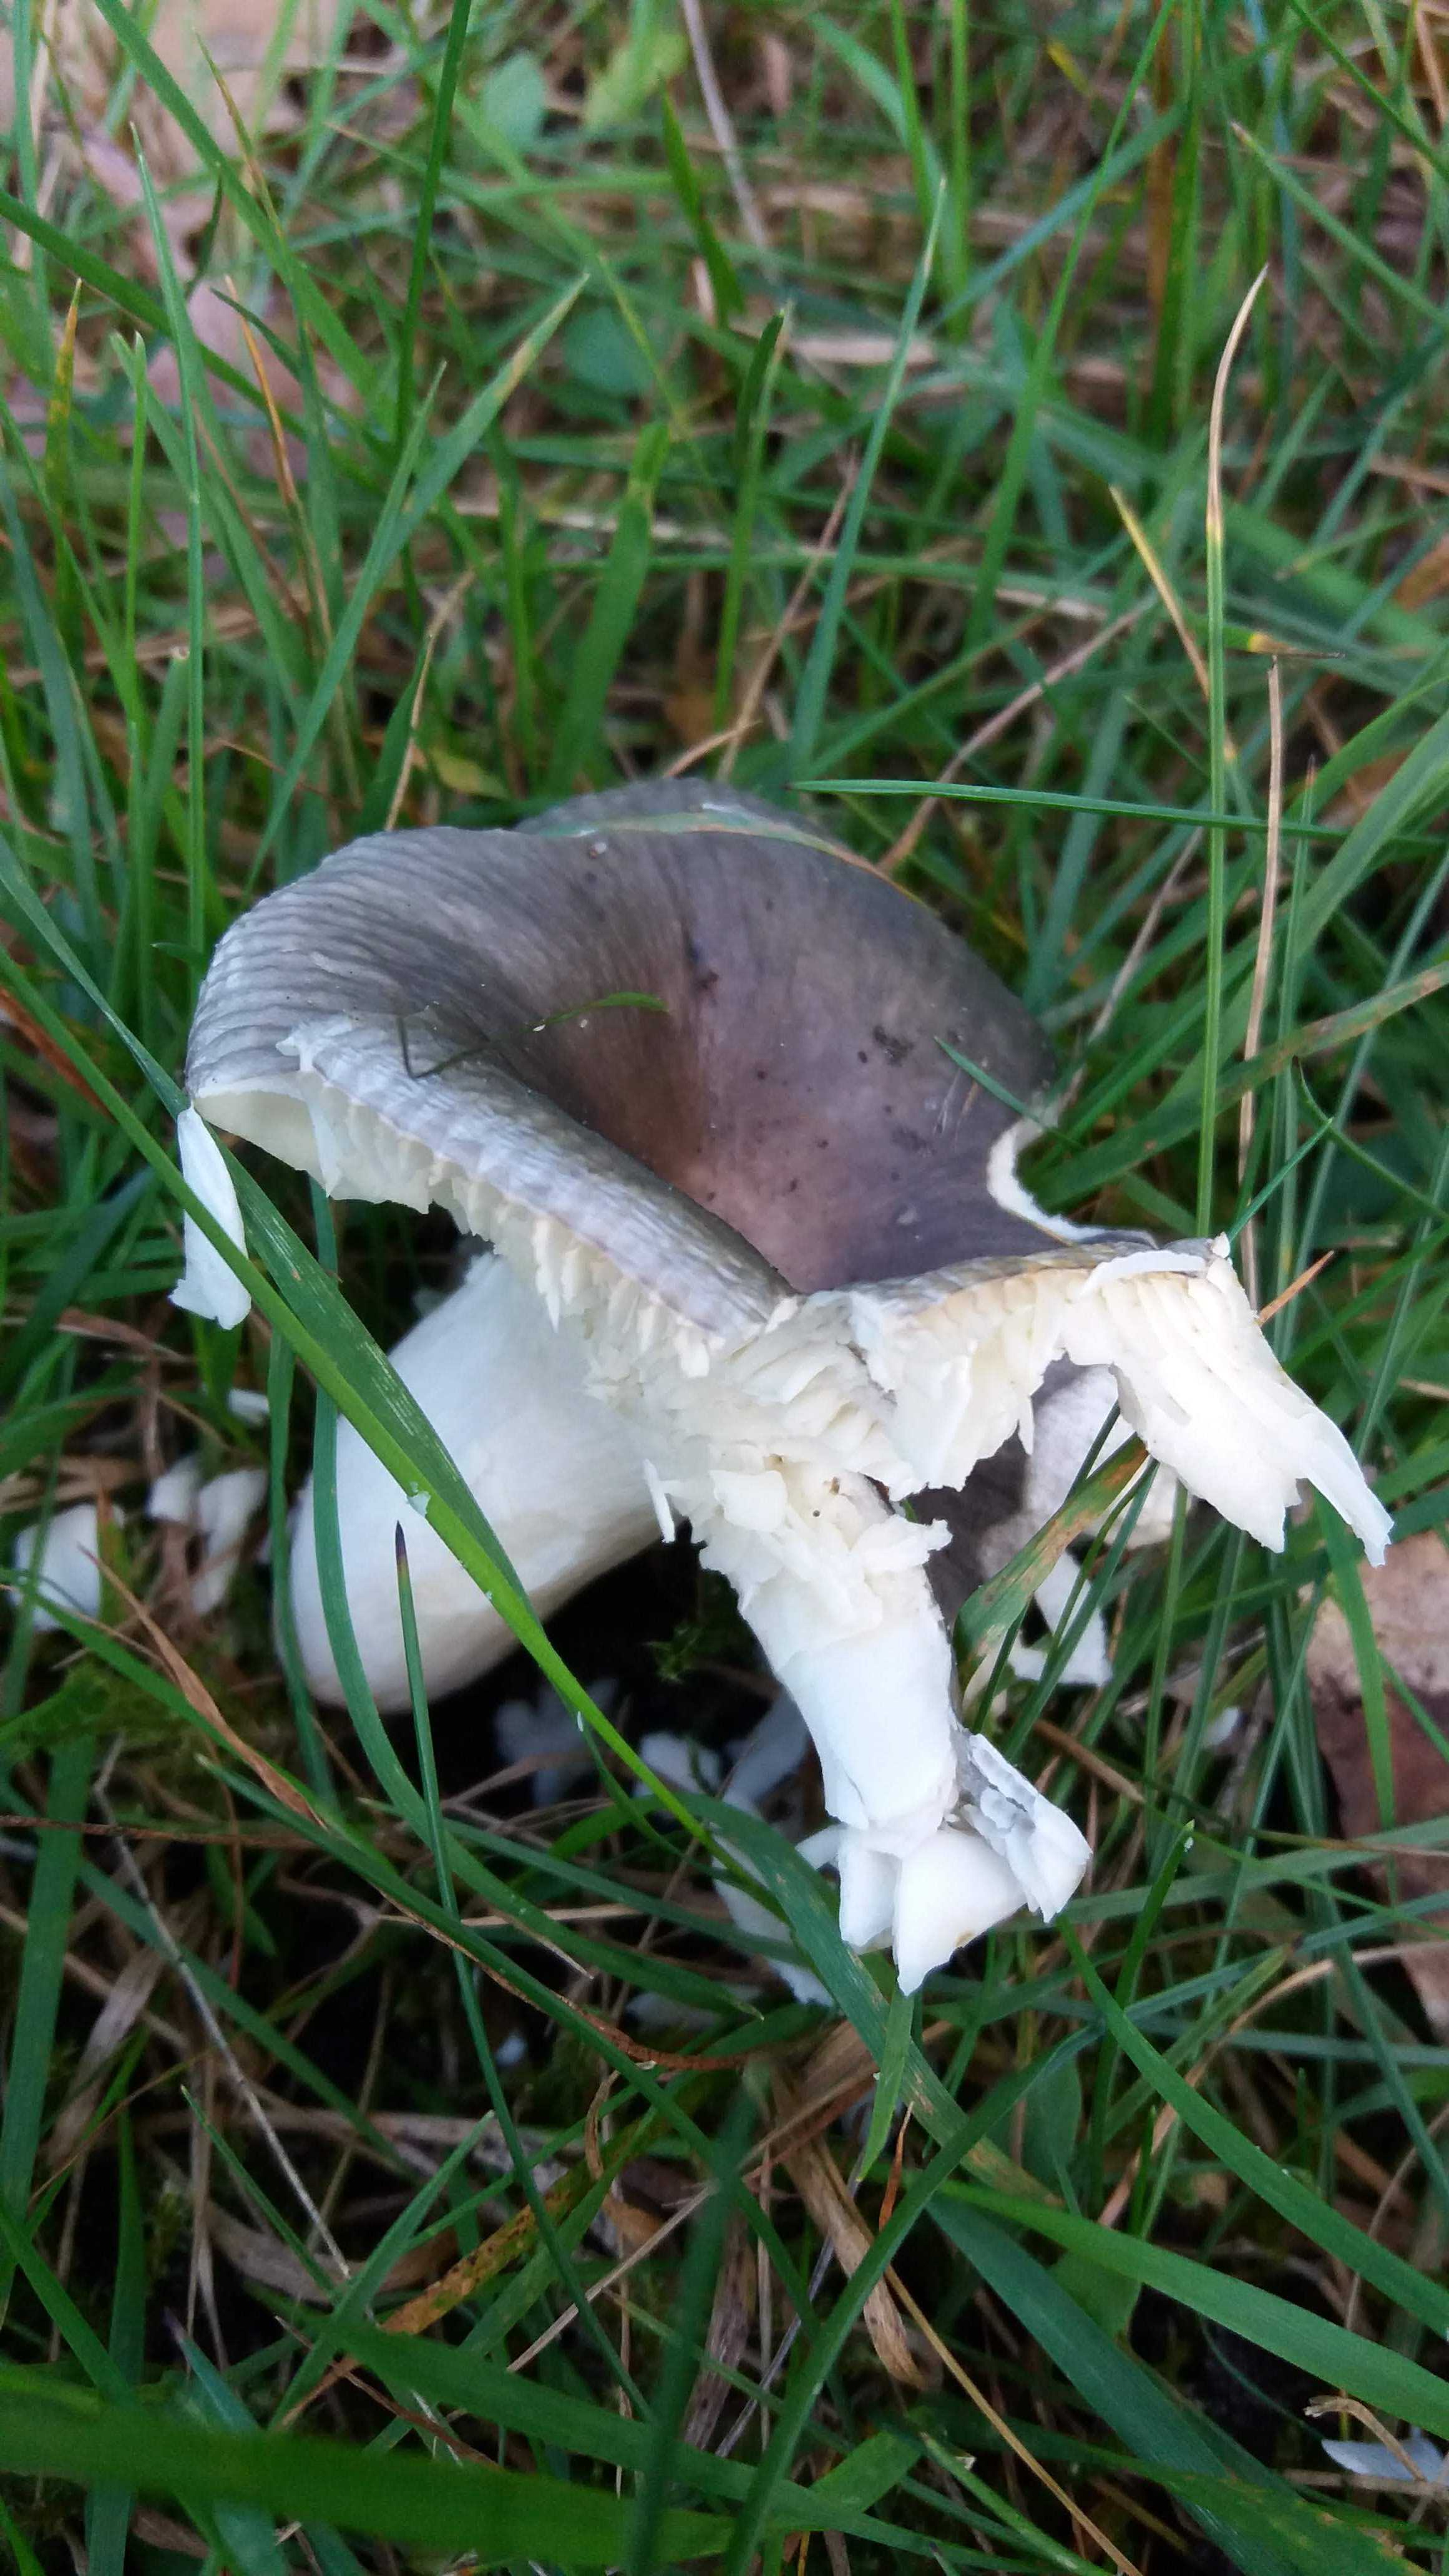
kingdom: Fungi
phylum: Basidiomycota
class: Agaricomycetes
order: Russulales
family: Russulaceae
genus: Russula
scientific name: Russula
